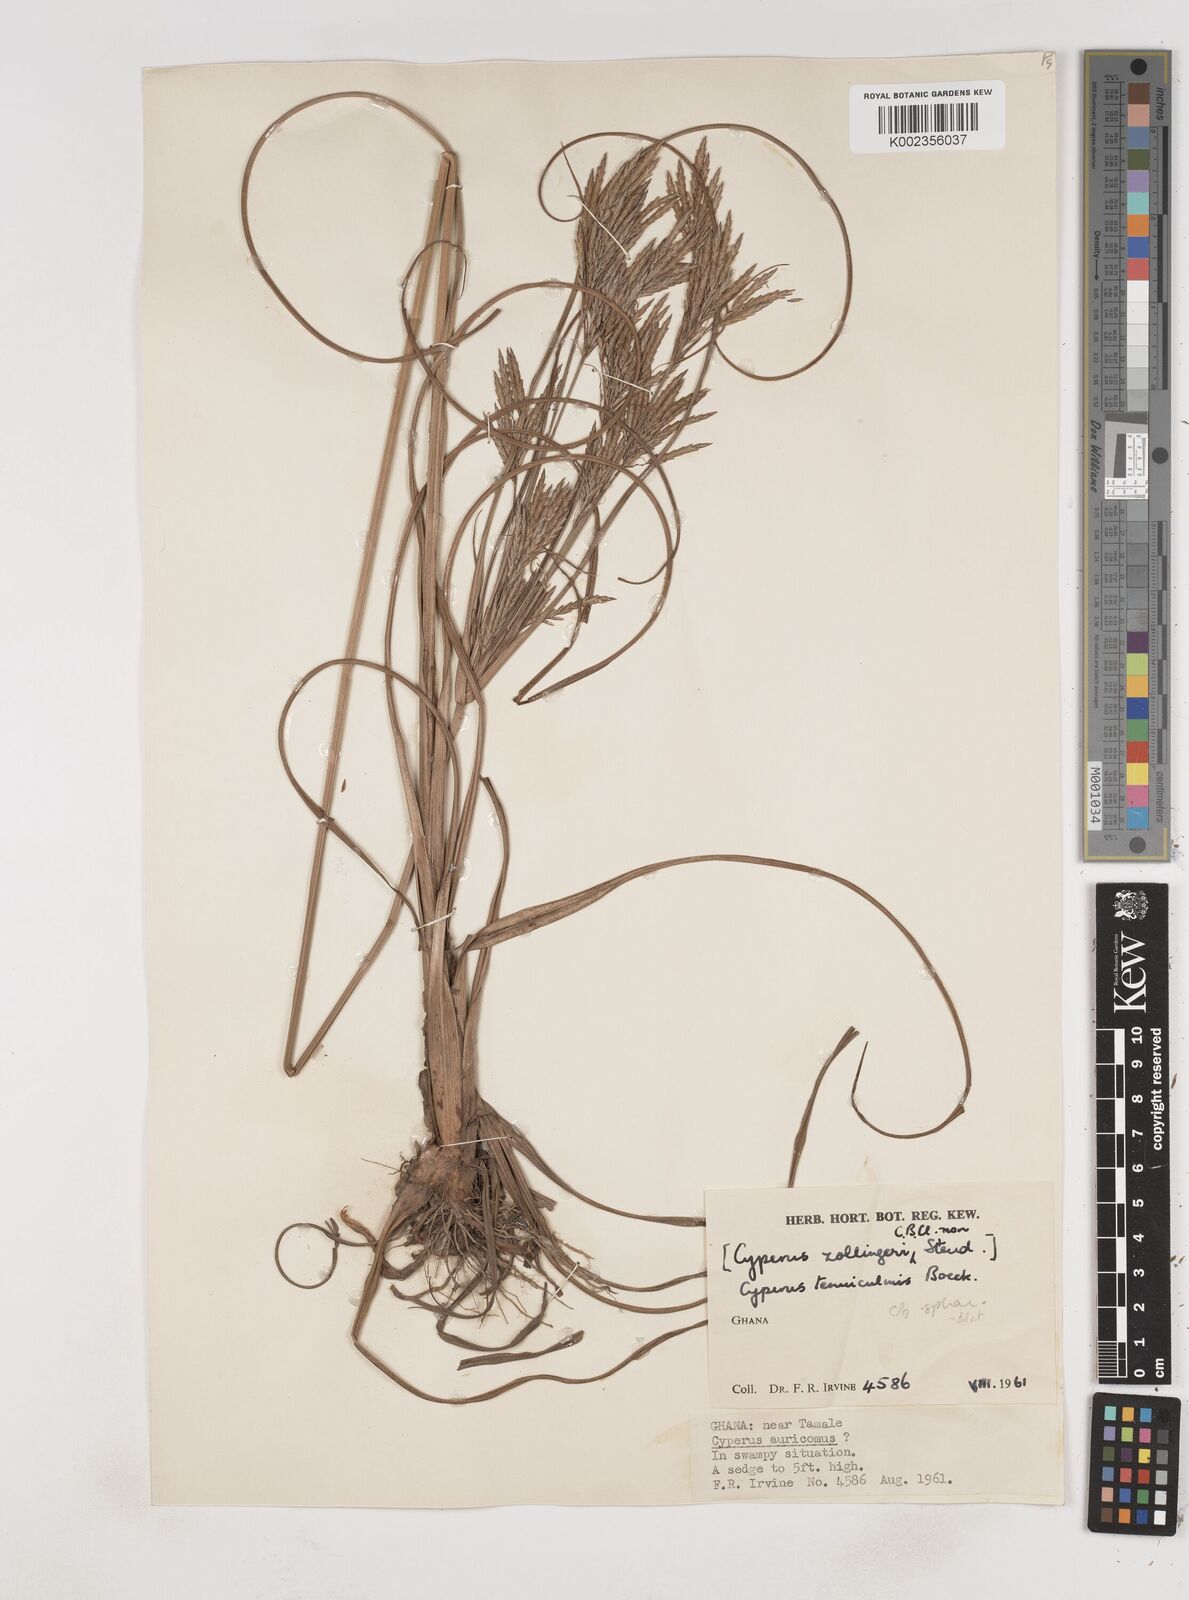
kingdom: Plantae
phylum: Tracheophyta
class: Liliopsida
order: Poales
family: Cyperaceae
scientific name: Cyperaceae
